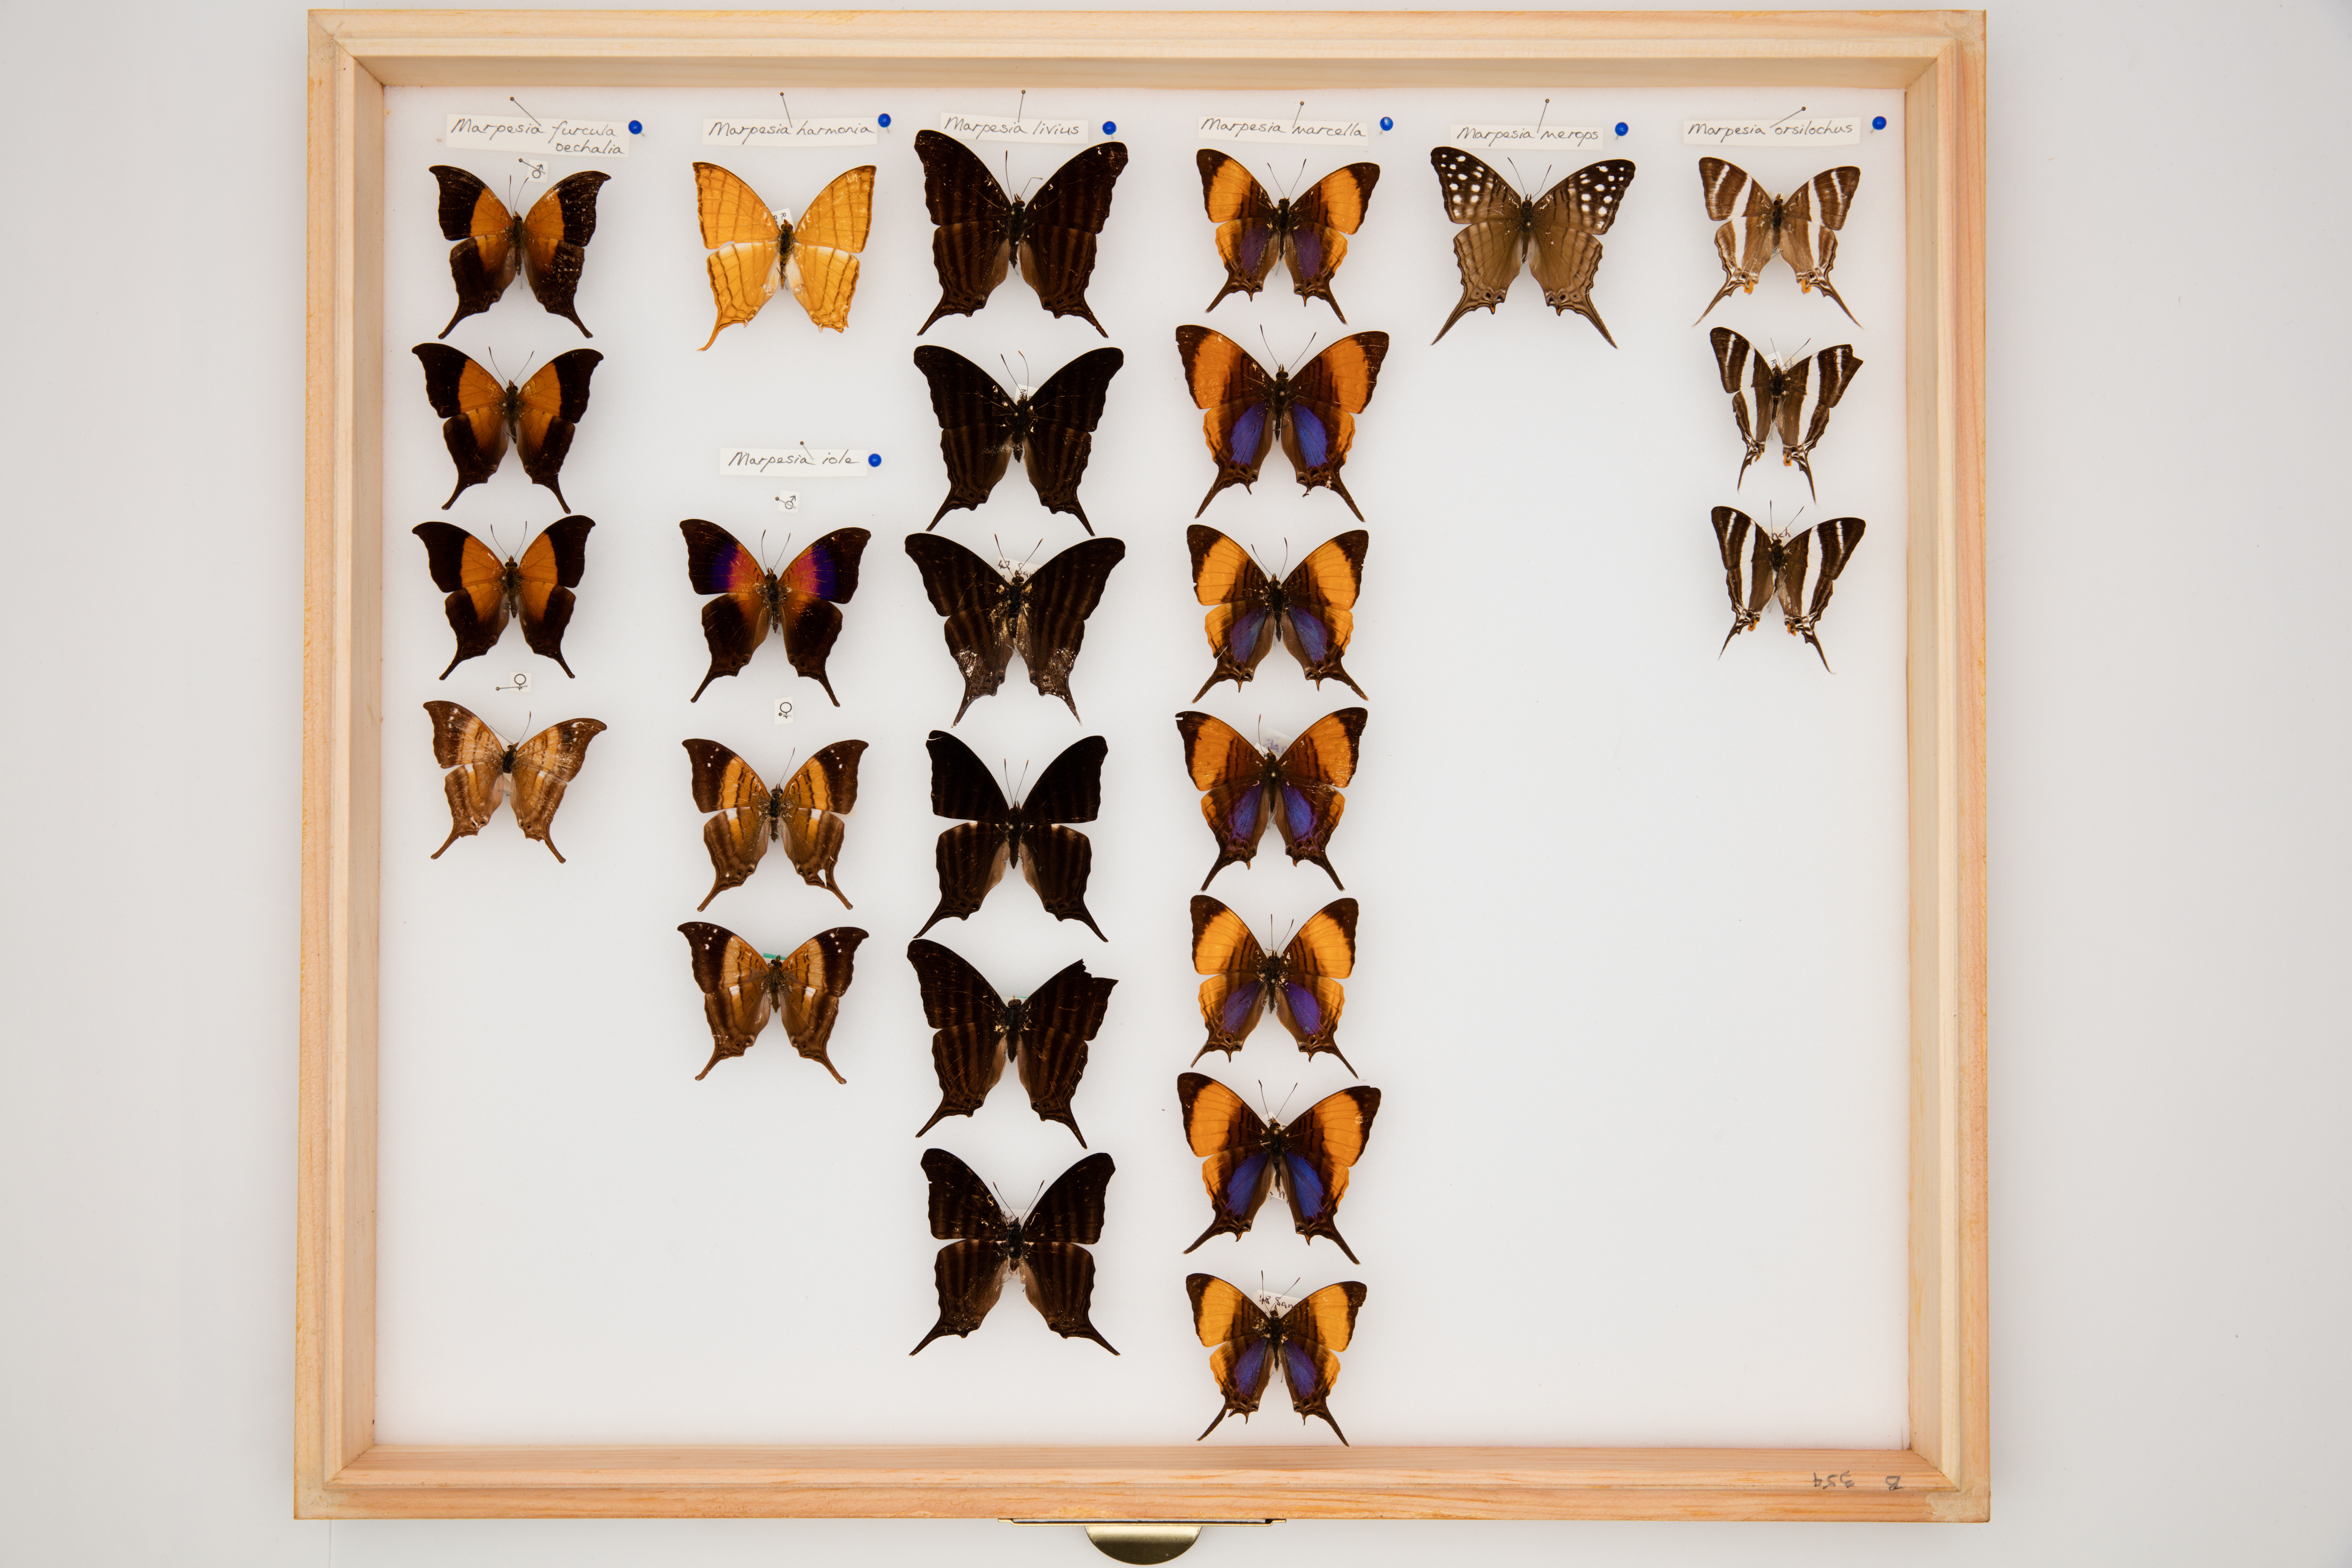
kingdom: Animalia
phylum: Arthropoda
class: Insecta
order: Lepidoptera
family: Nymphalidae
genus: Marpesia
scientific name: Marpesia iole
